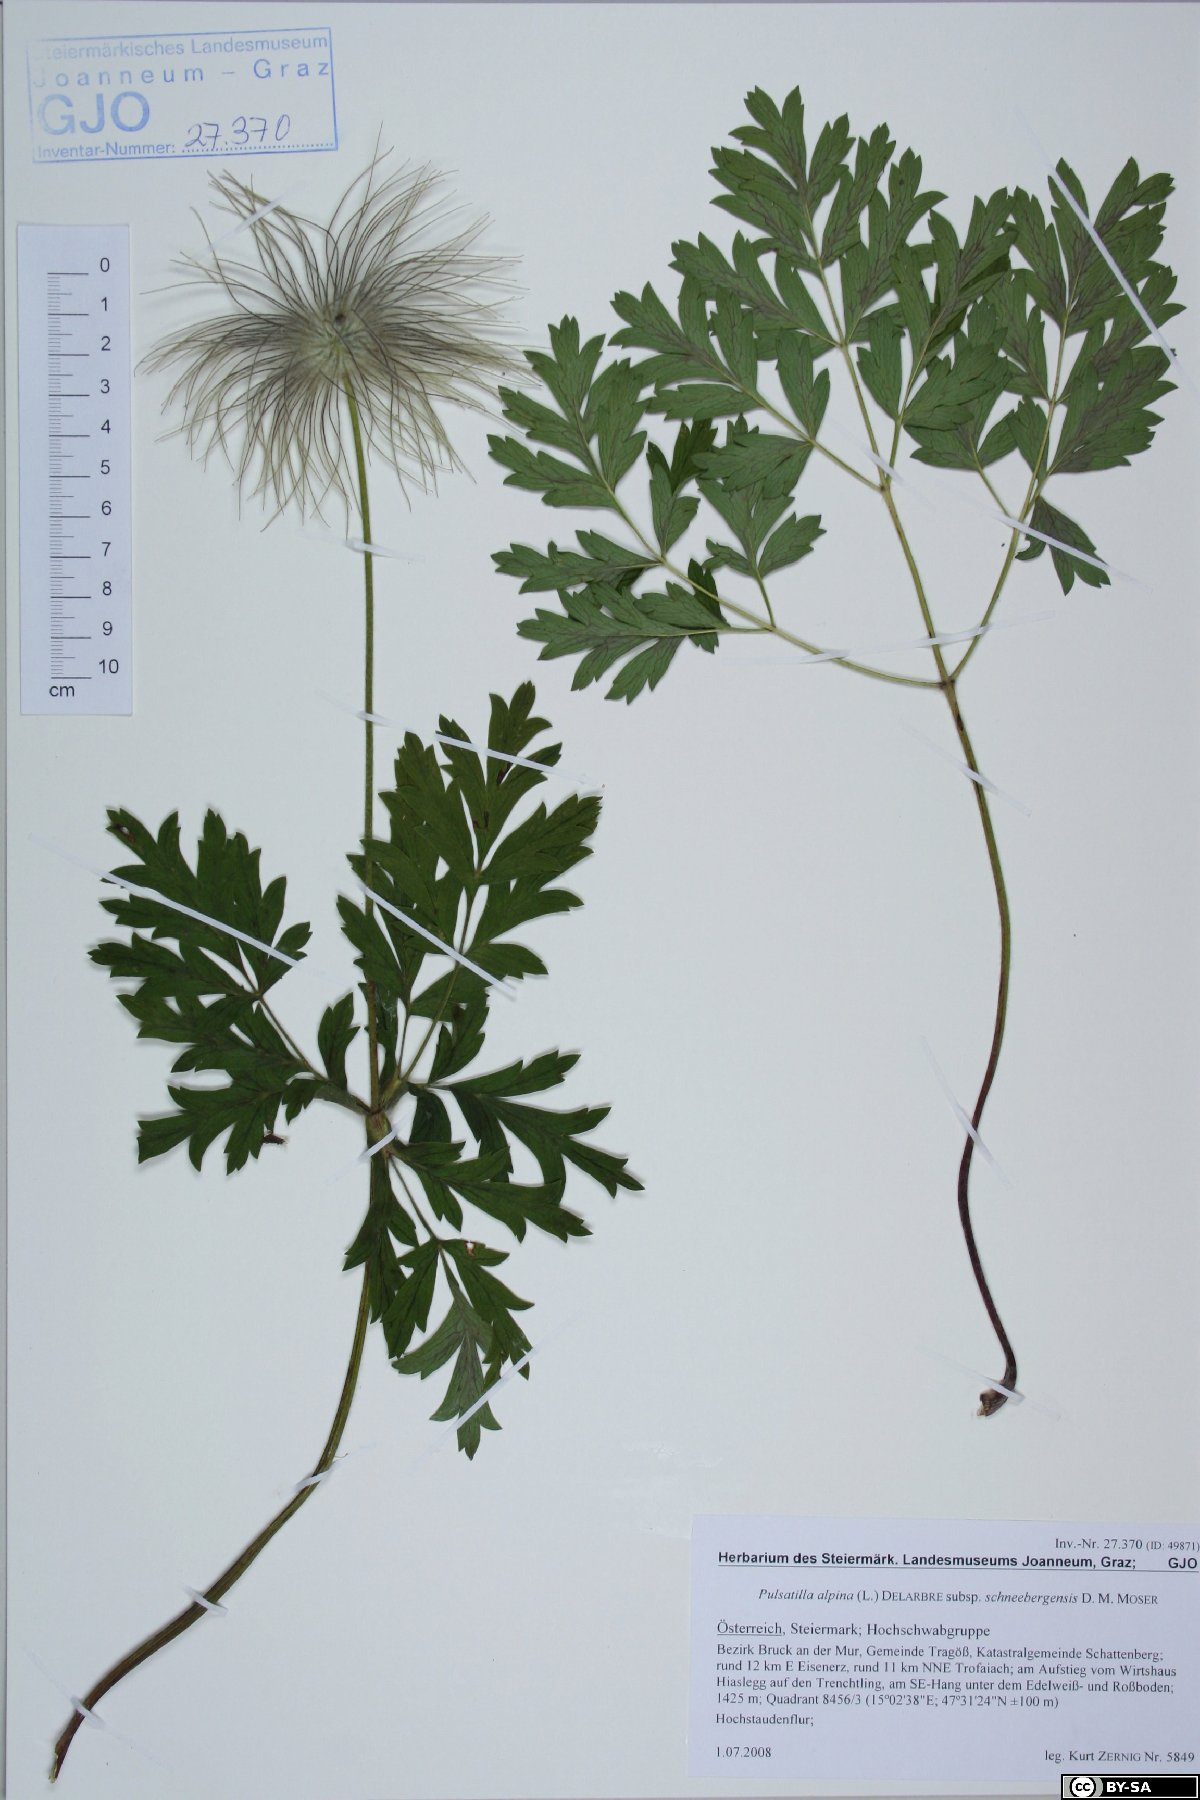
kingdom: Plantae
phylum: Tracheophyta
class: Magnoliopsida
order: Ranunculales
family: Ranunculaceae
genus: Pulsatilla
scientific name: Pulsatilla alpina
